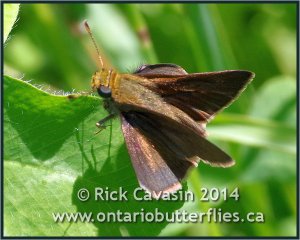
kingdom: Animalia
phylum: Arthropoda
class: Insecta
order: Lepidoptera
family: Hesperiidae
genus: Euphyes
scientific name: Euphyes vestris
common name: Dun Skipper
